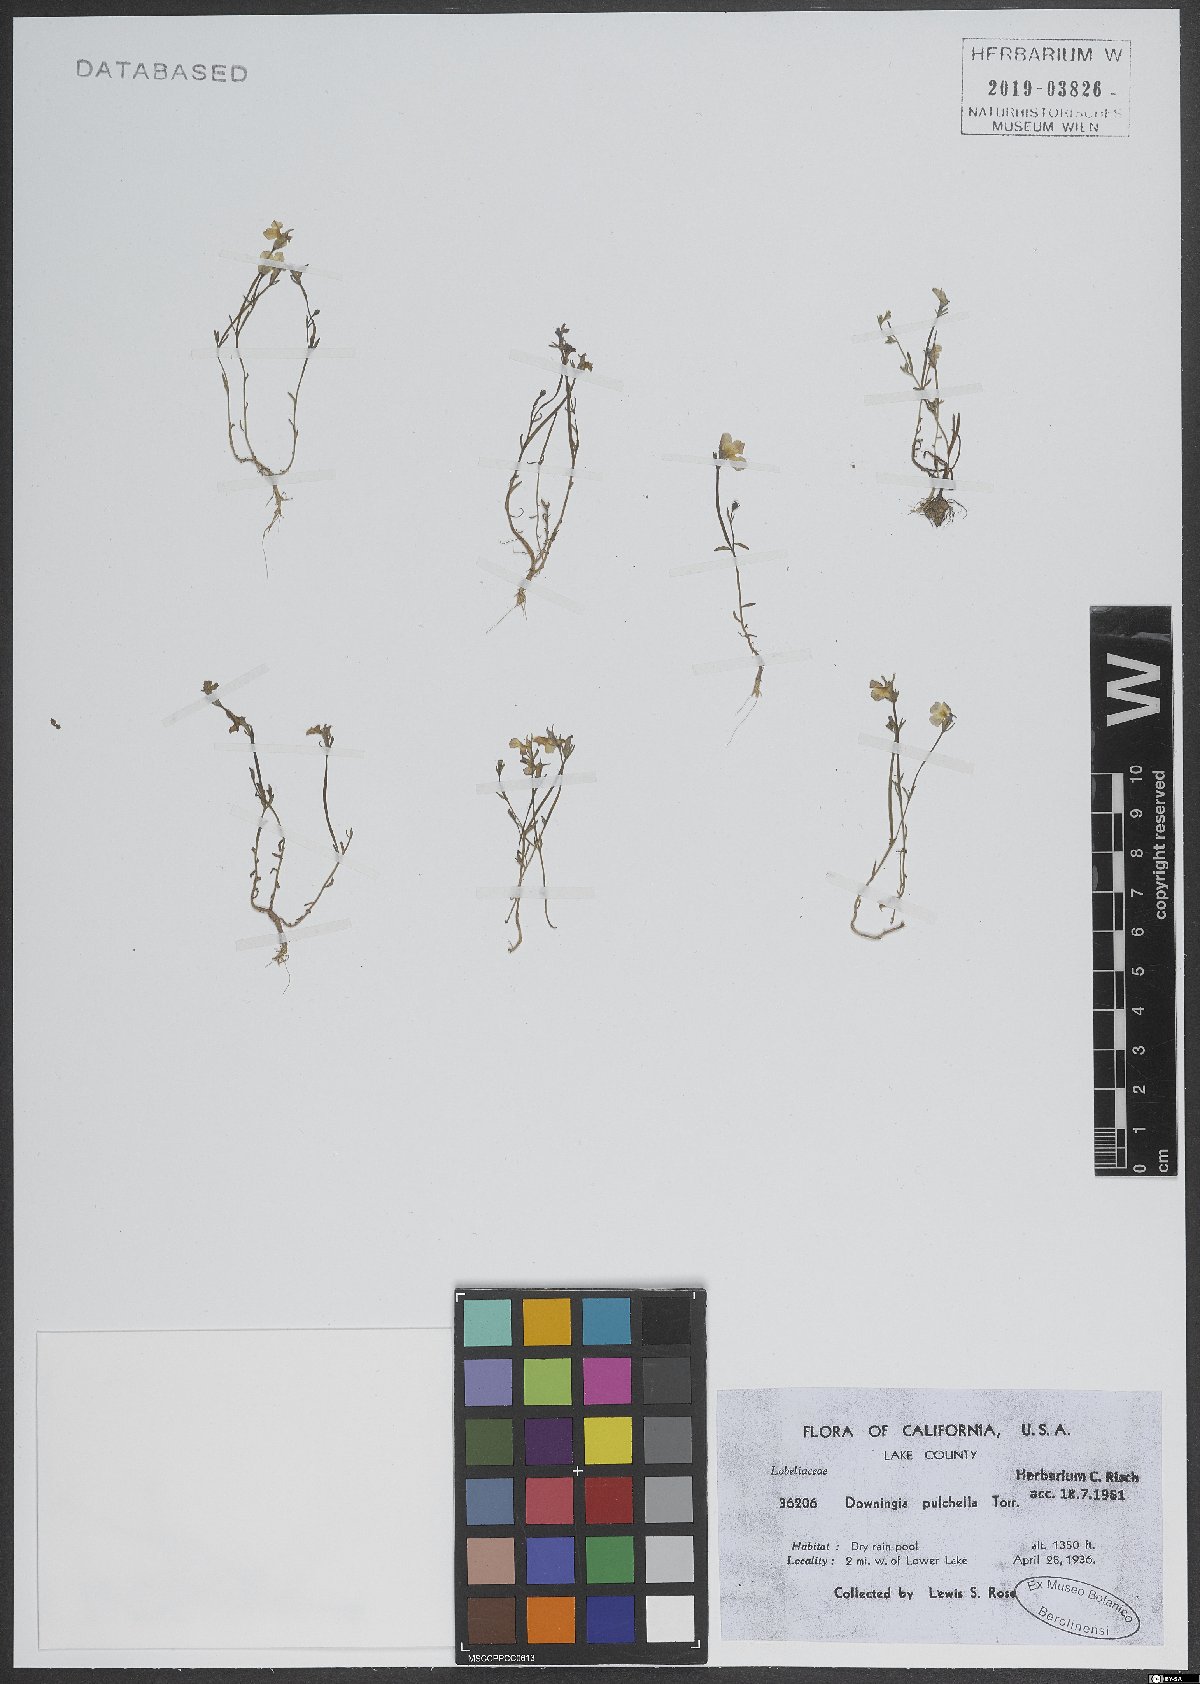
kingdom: Plantae
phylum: Tracheophyta
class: Magnoliopsida
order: Asterales
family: Campanulaceae
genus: Downingia
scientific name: Downingia pulchella
